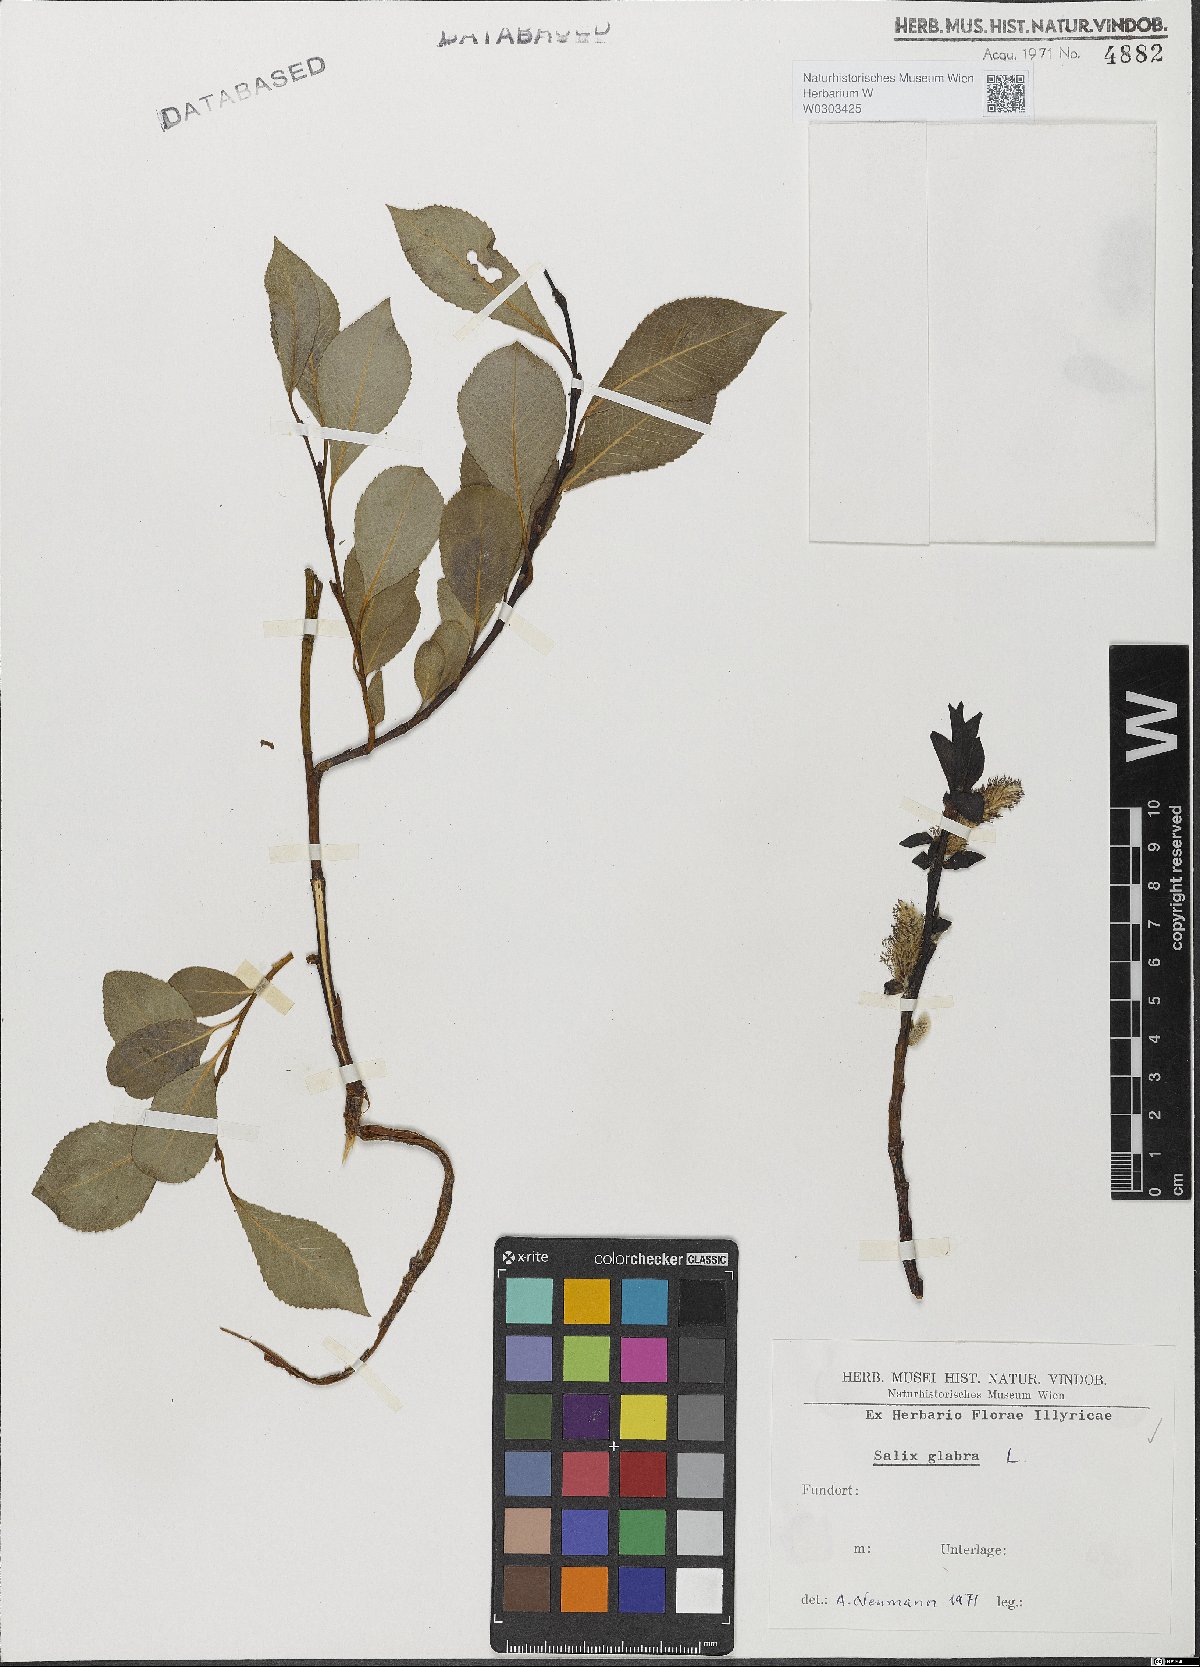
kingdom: Plantae
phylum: Tracheophyta
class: Magnoliopsida
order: Malpighiales
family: Salicaceae
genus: Salix
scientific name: Salix glabra
